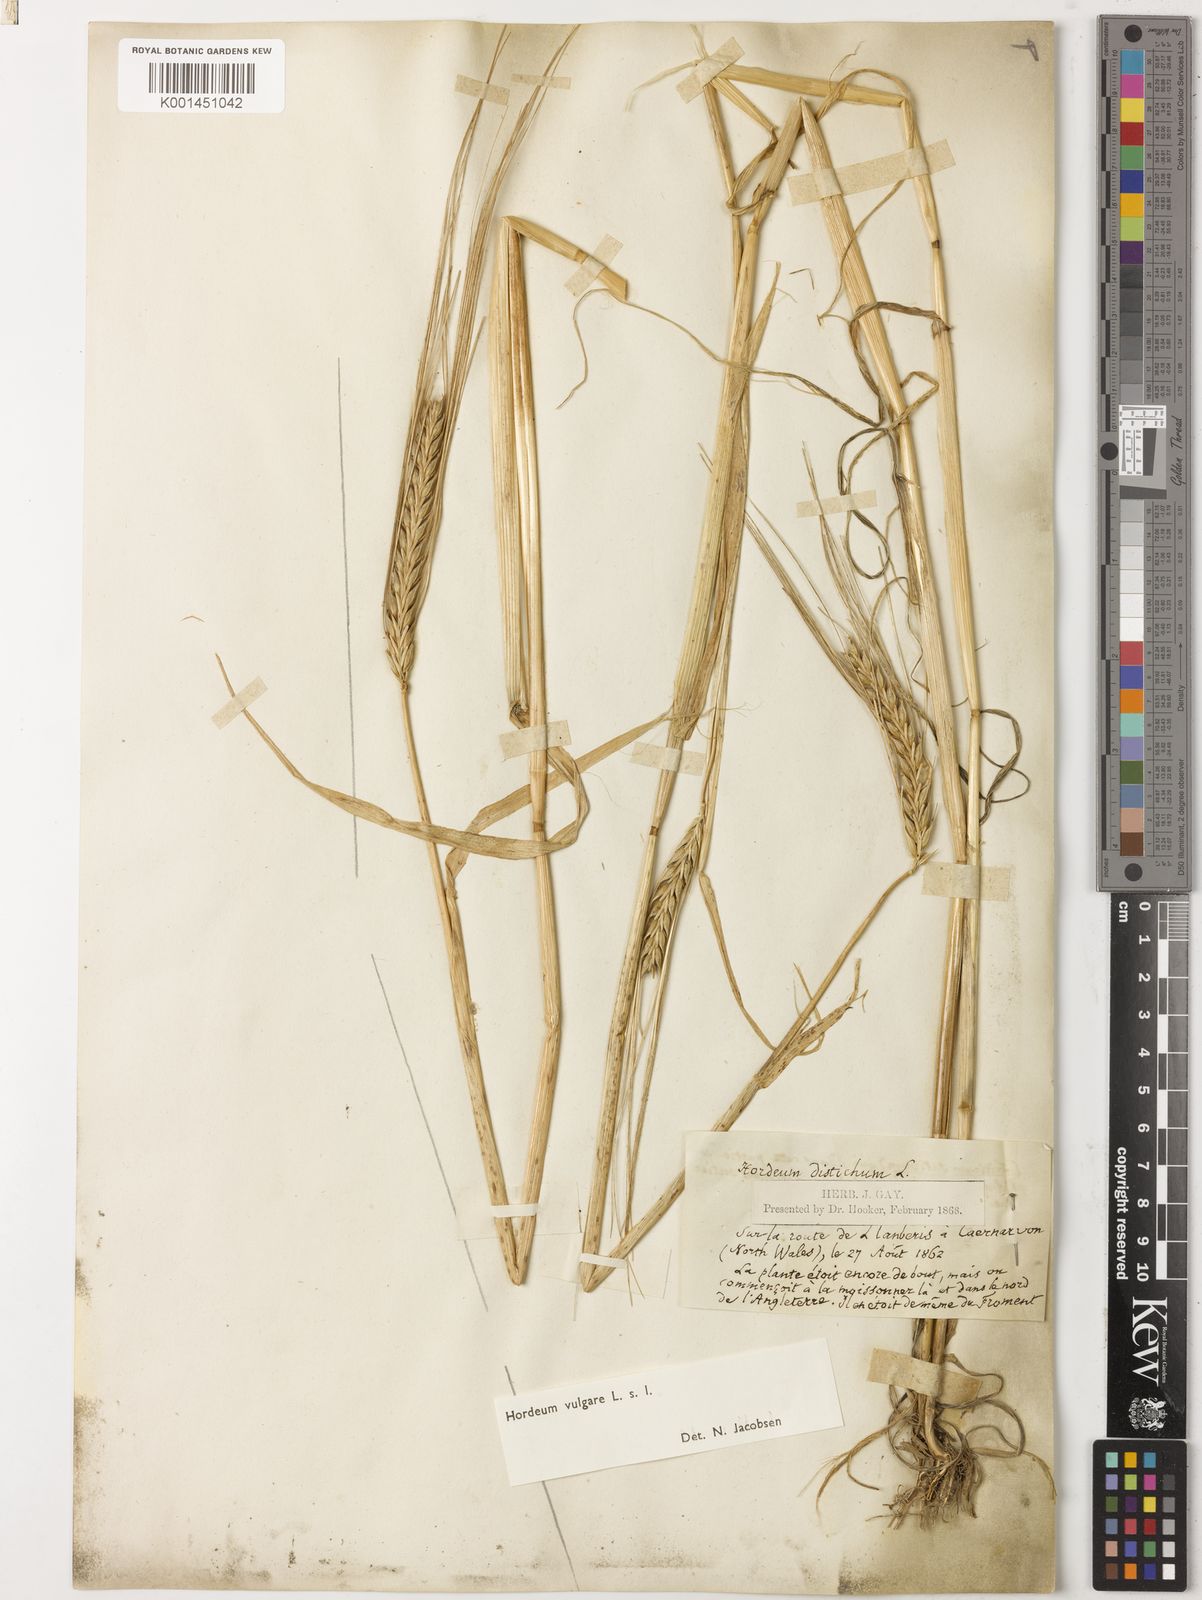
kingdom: Plantae
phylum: Tracheophyta
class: Liliopsida
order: Poales
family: Poaceae
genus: Hordeum
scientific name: Hordeum vulgare
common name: Common barley
